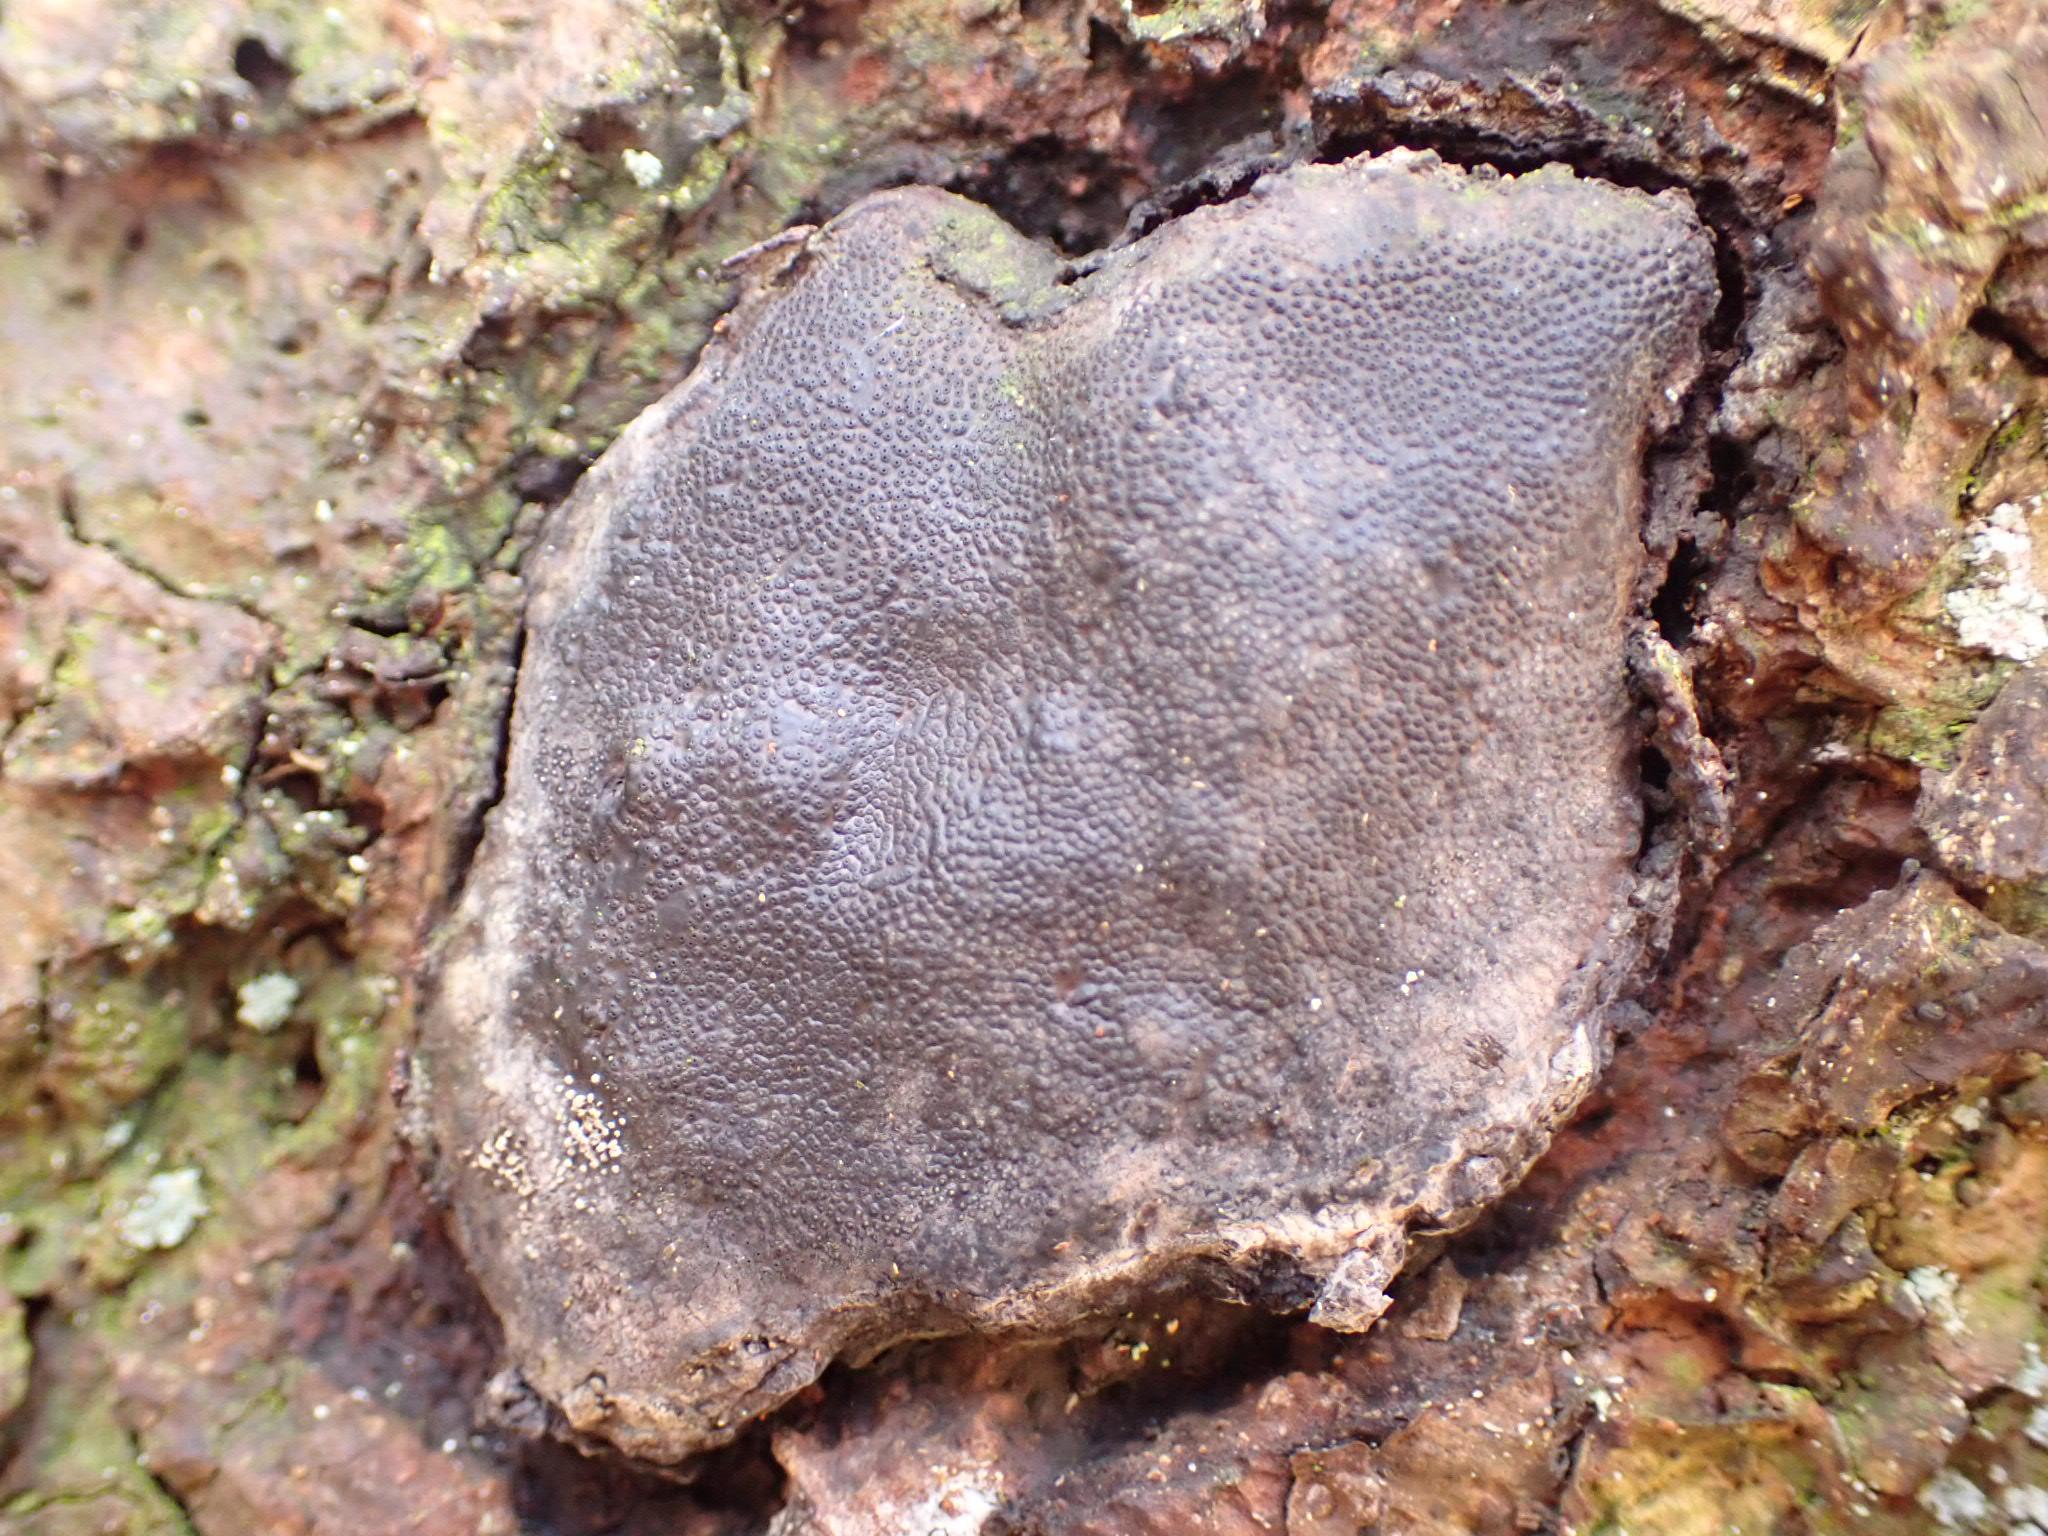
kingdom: Fungi
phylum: Ascomycota
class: Sordariomycetes
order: Boliniales
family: Boliniaceae
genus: Camarops
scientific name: Camarops polysperma
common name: elle-kulsnegl
